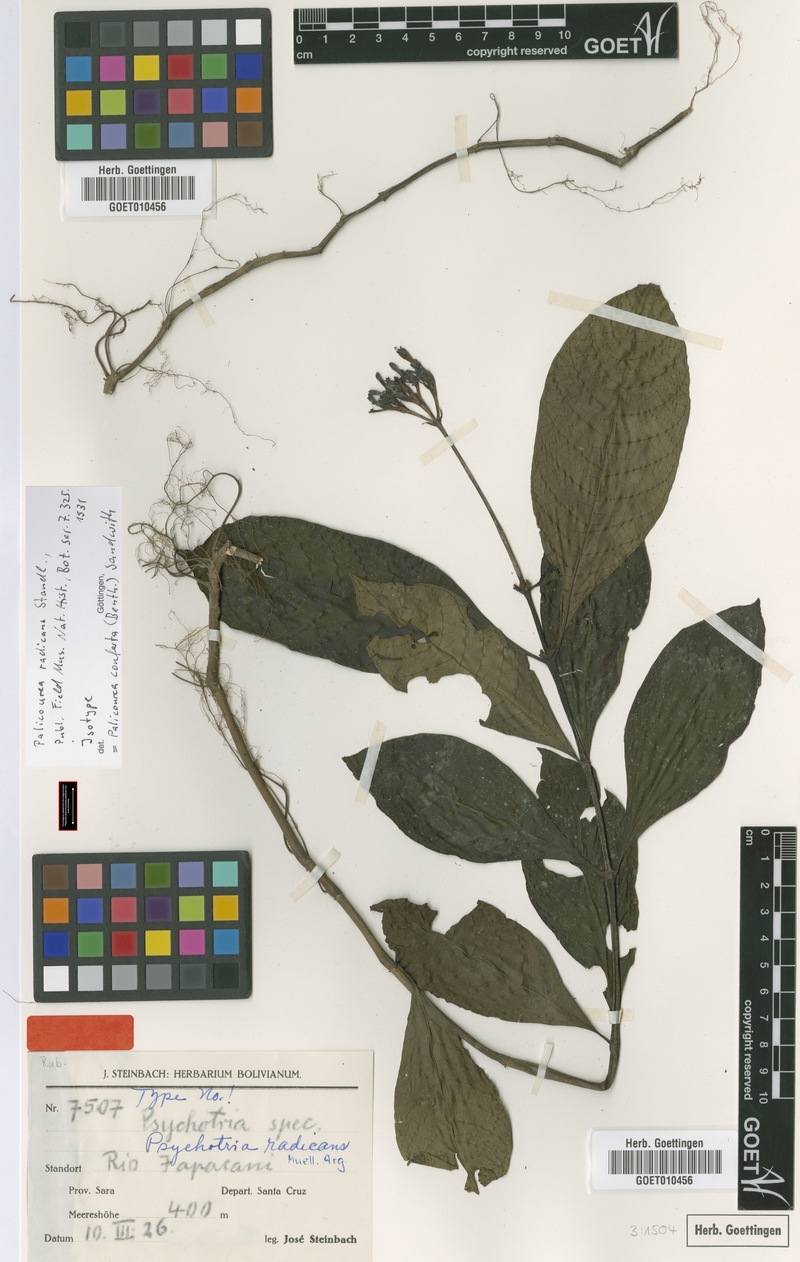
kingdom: Plantae
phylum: Tracheophyta
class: Magnoliopsida
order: Gentianales
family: Rubiaceae
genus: Palicourea
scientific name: Palicourea conferta
